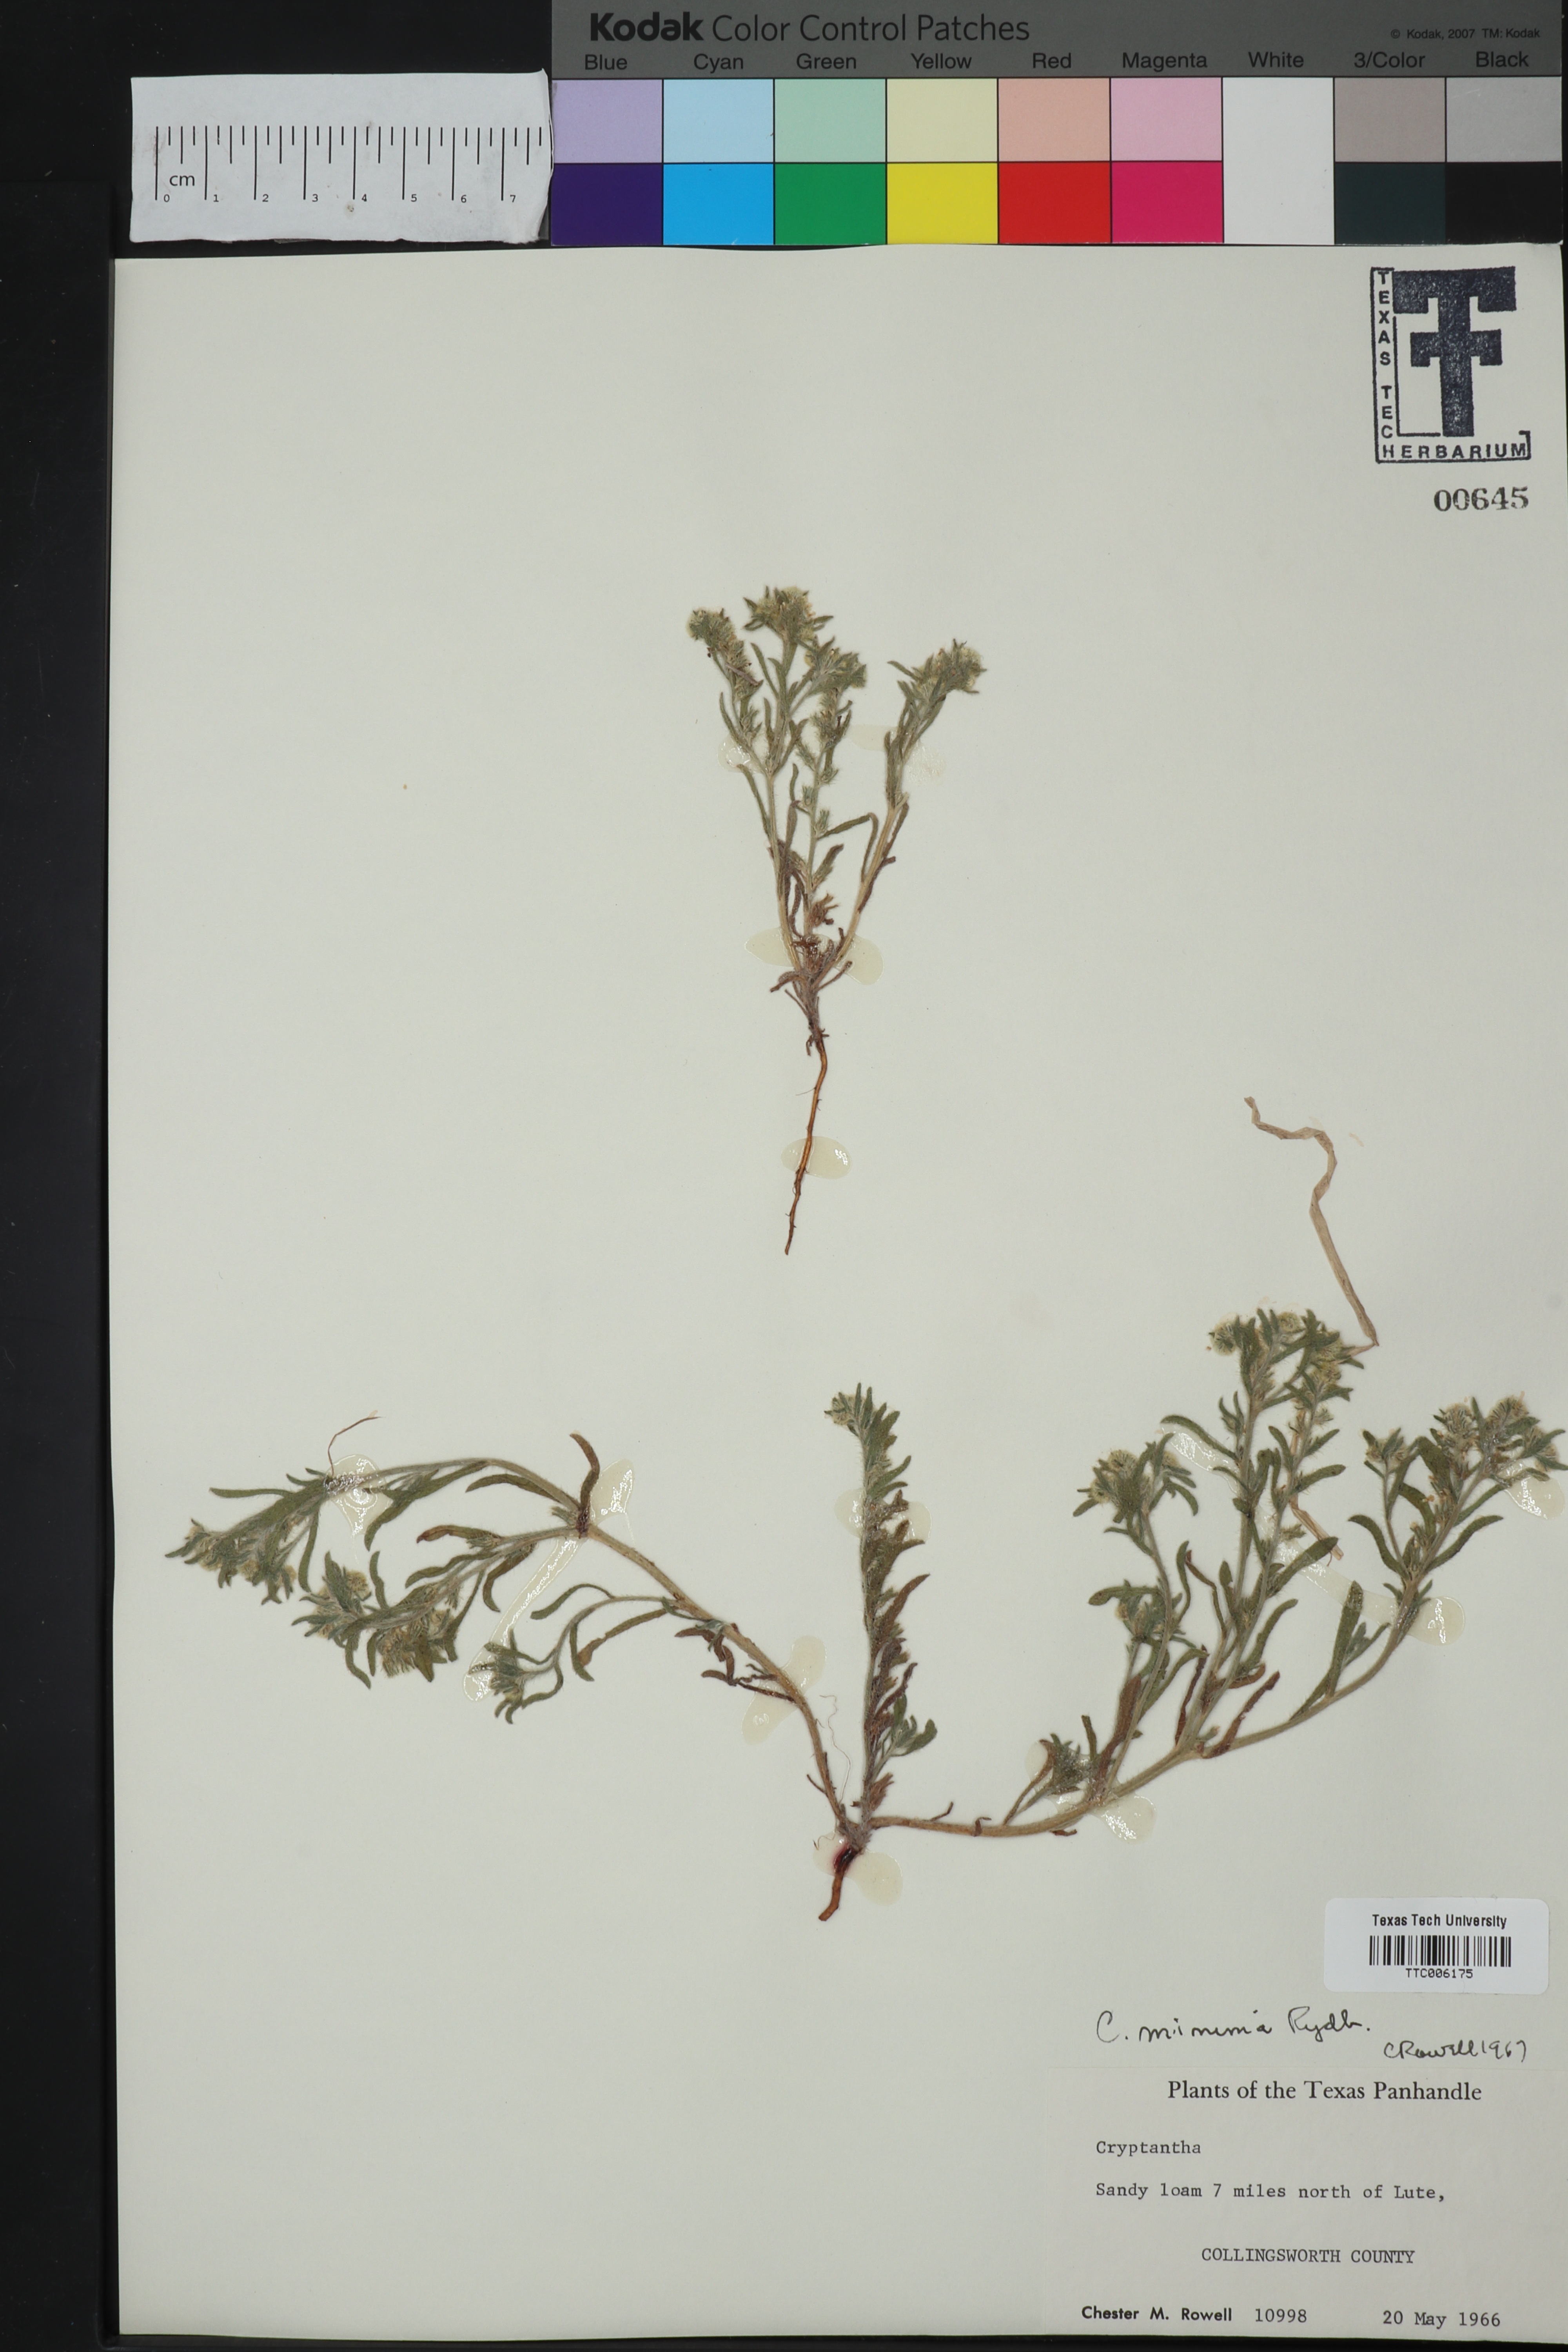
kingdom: Plantae
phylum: Tracheophyta
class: Magnoliopsida
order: Boraginales
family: Boraginaceae
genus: Cryptantha
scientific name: Cryptantha minima
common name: Little cat's-eye
